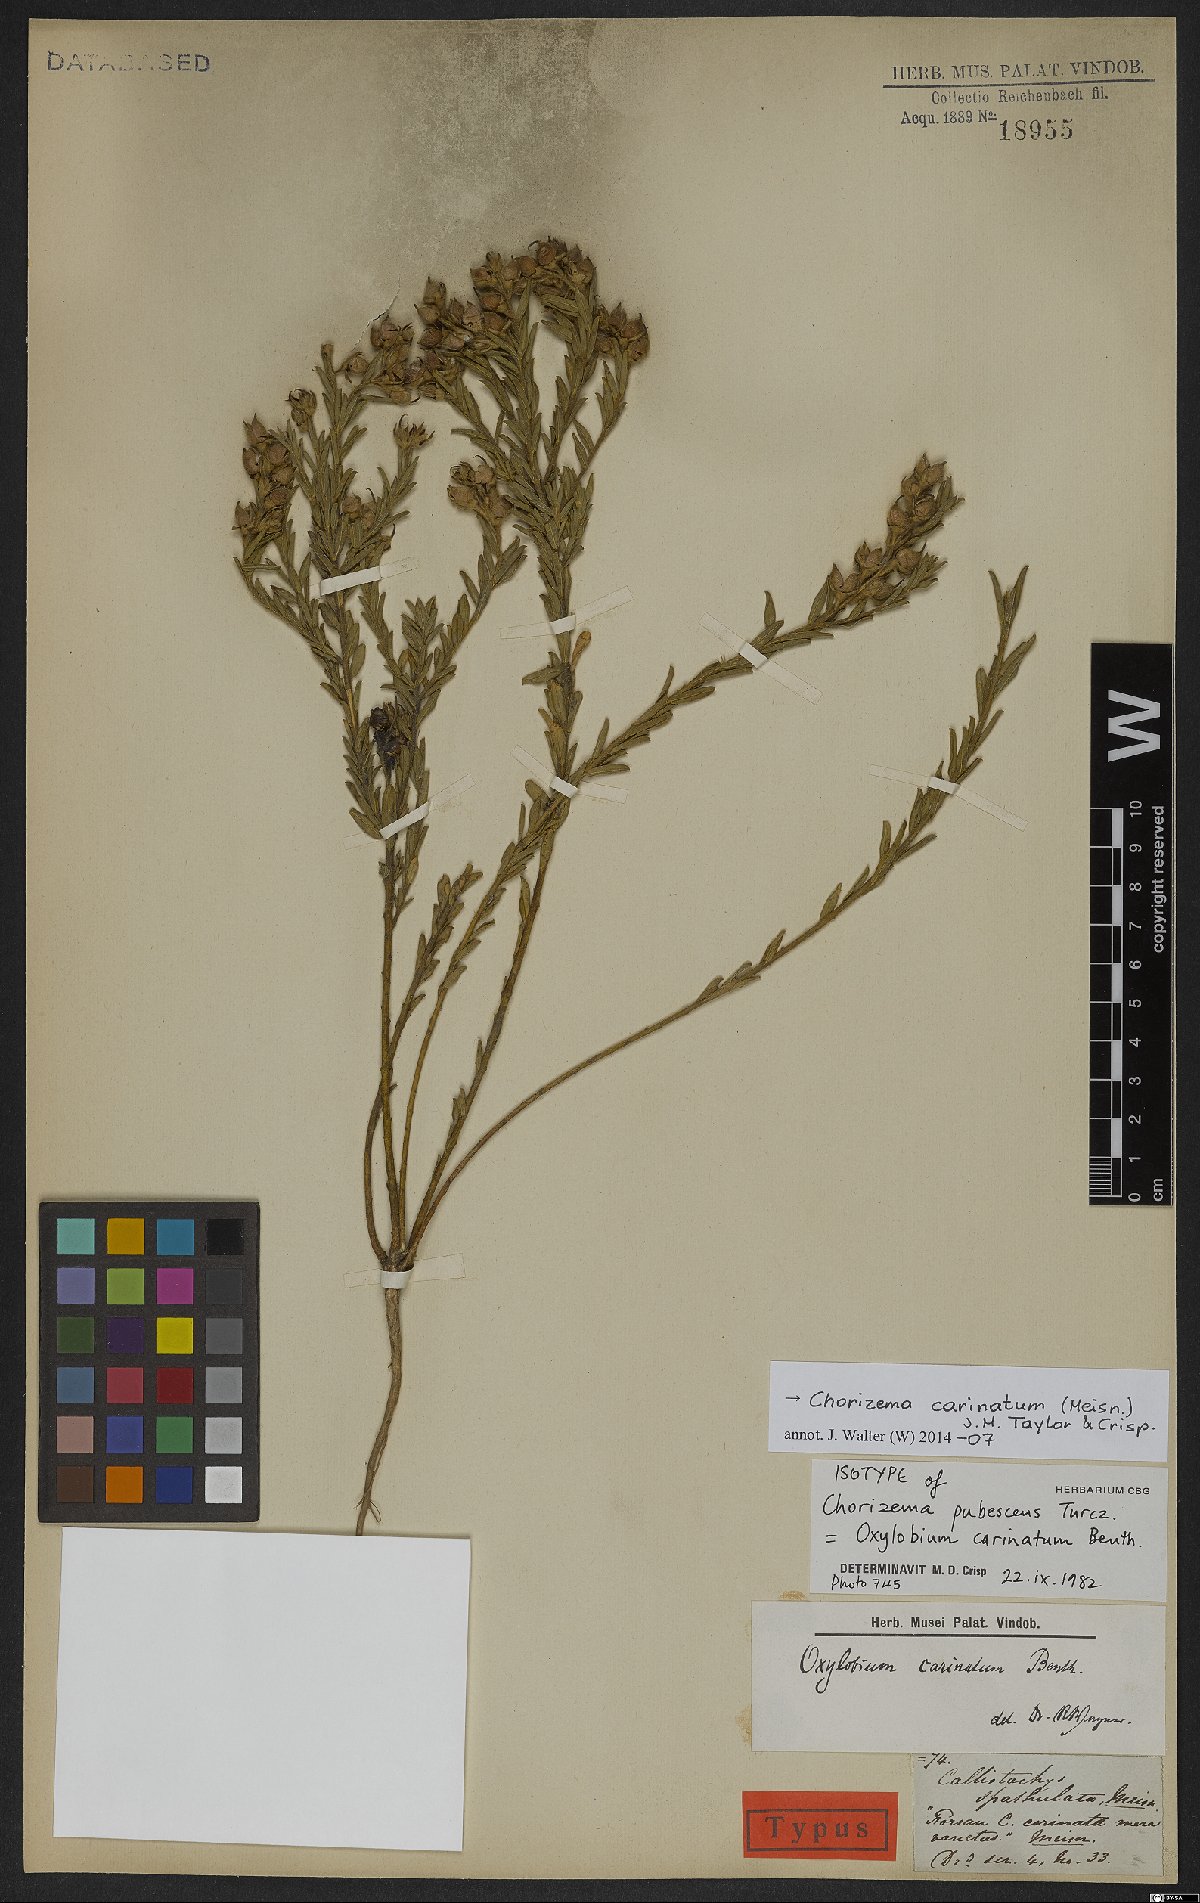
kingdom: Plantae
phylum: Tracheophyta
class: Magnoliopsida
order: Fabales
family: Fabaceae
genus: Chorizema
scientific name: Chorizema carinatum
